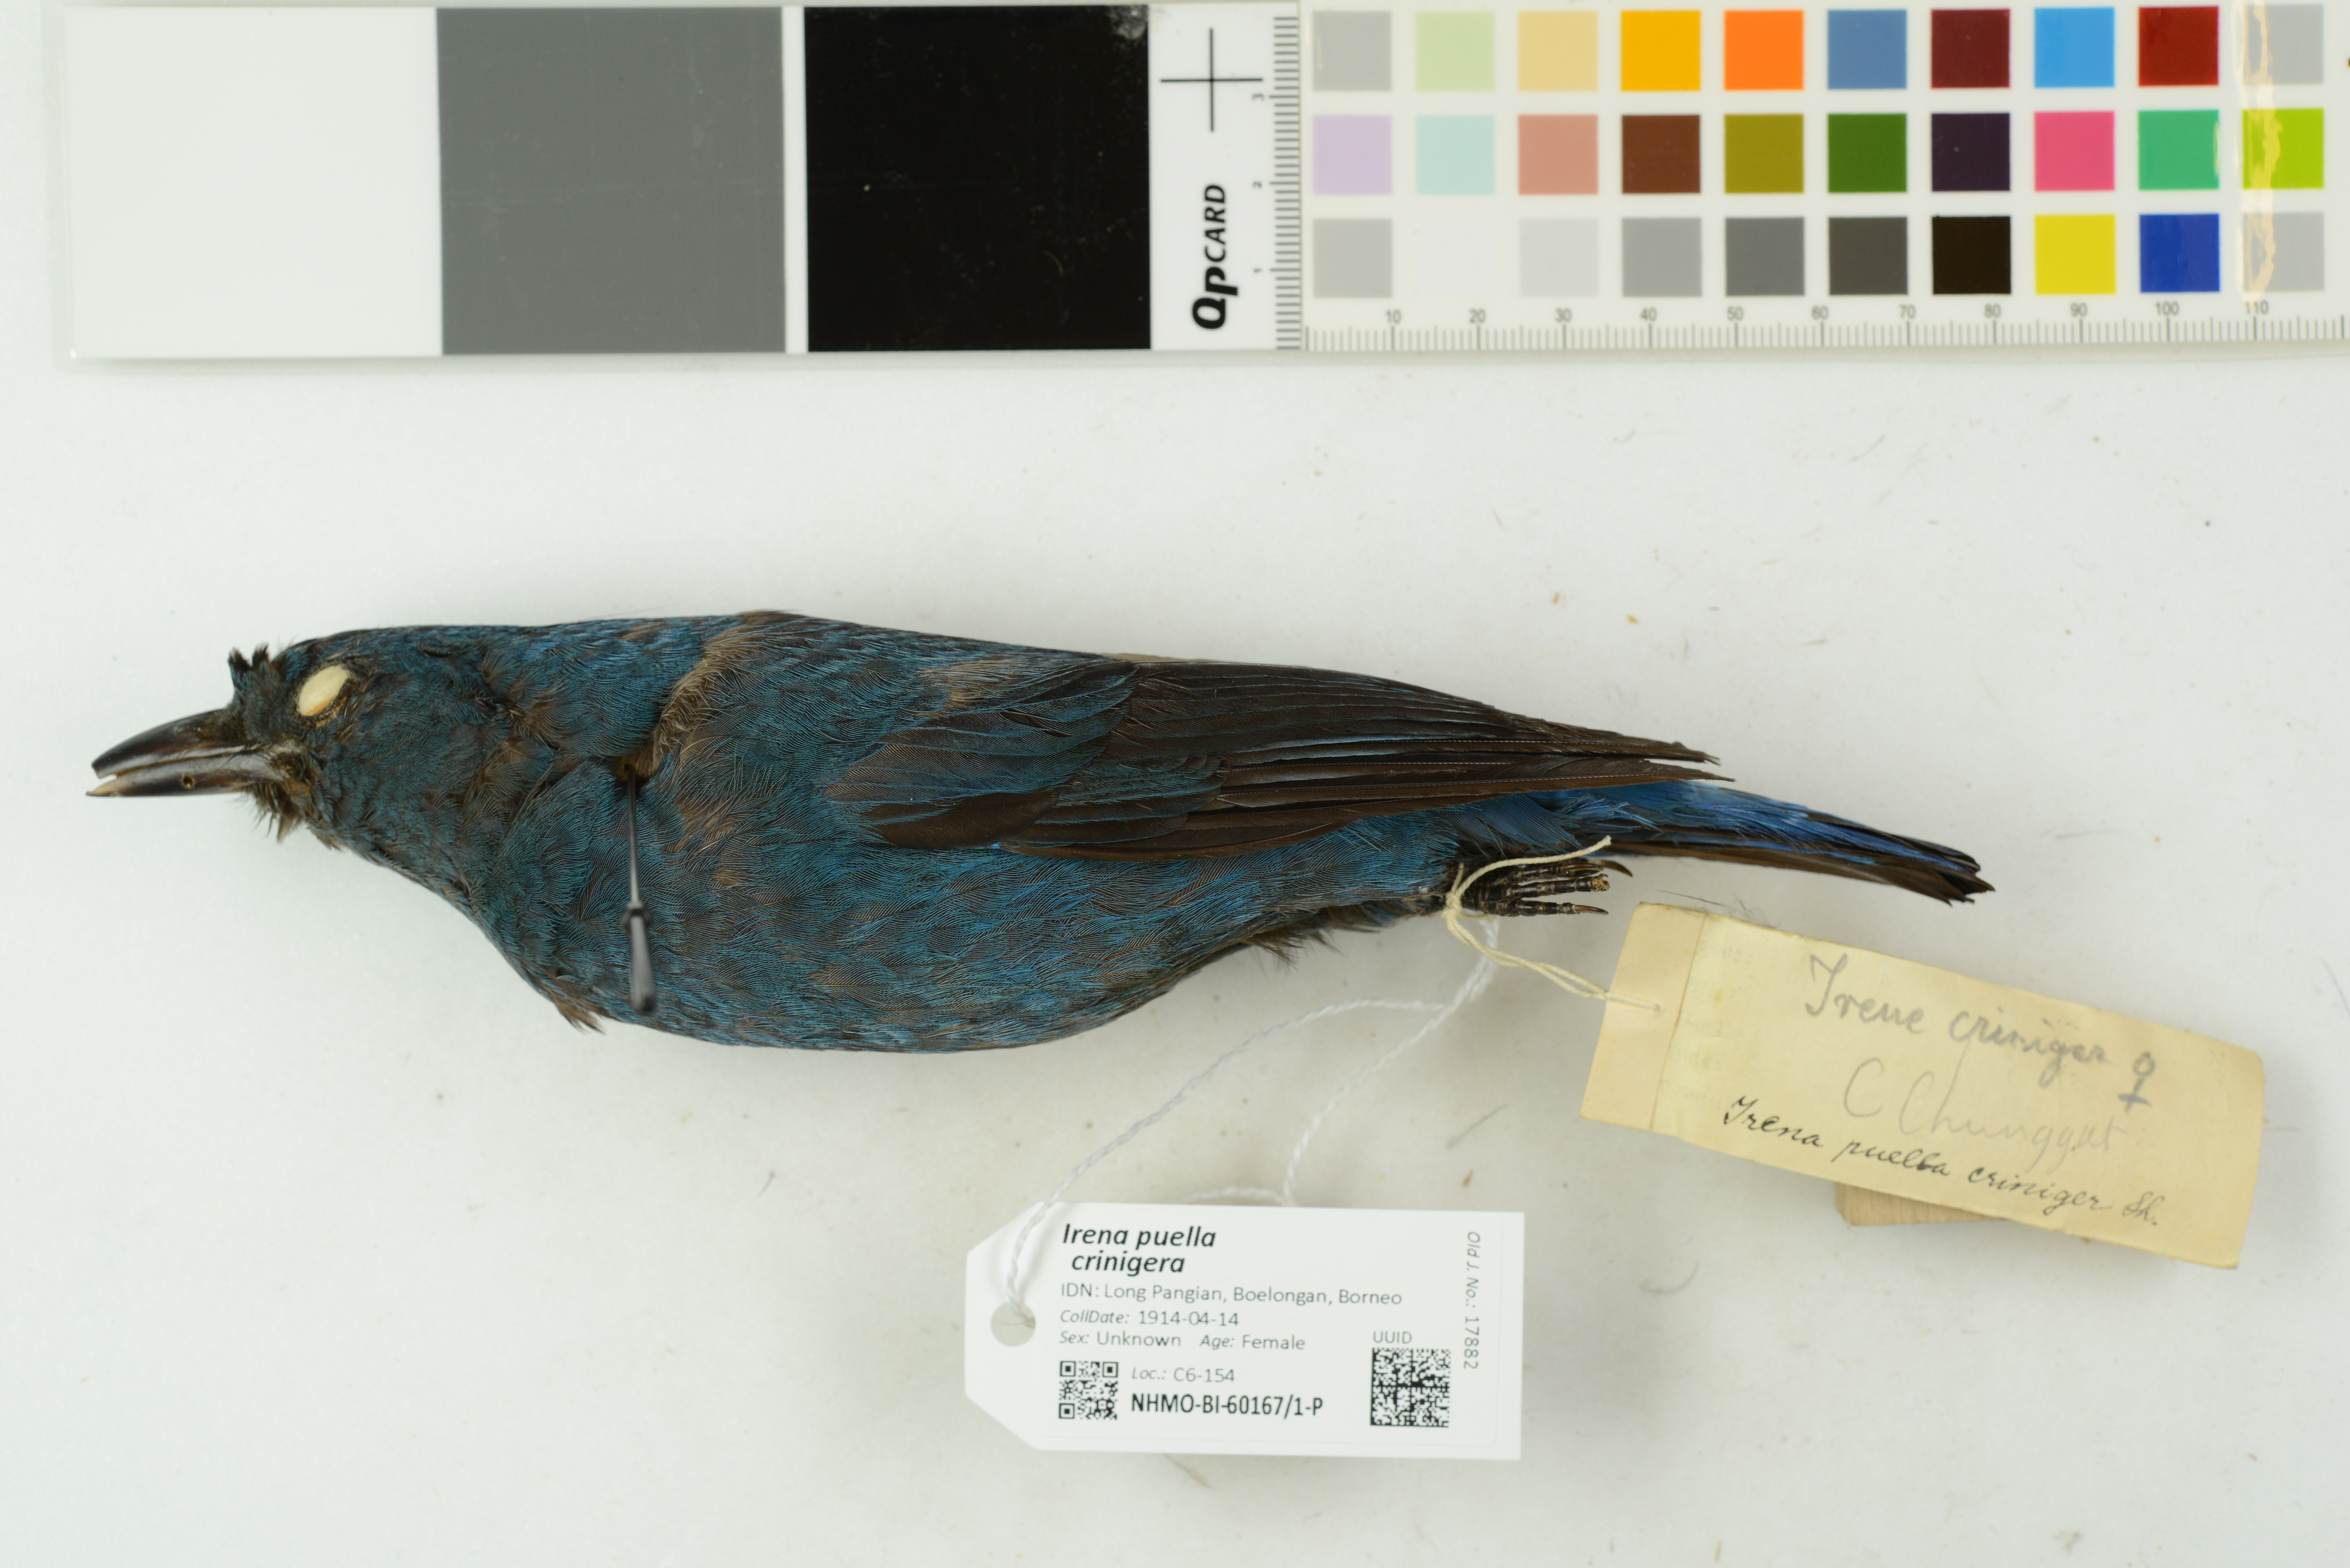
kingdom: Animalia
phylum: Chordata
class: Aves
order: Passeriformes
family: Irenidae
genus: Irena
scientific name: Irena puella
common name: Asian fairy-bluebird
